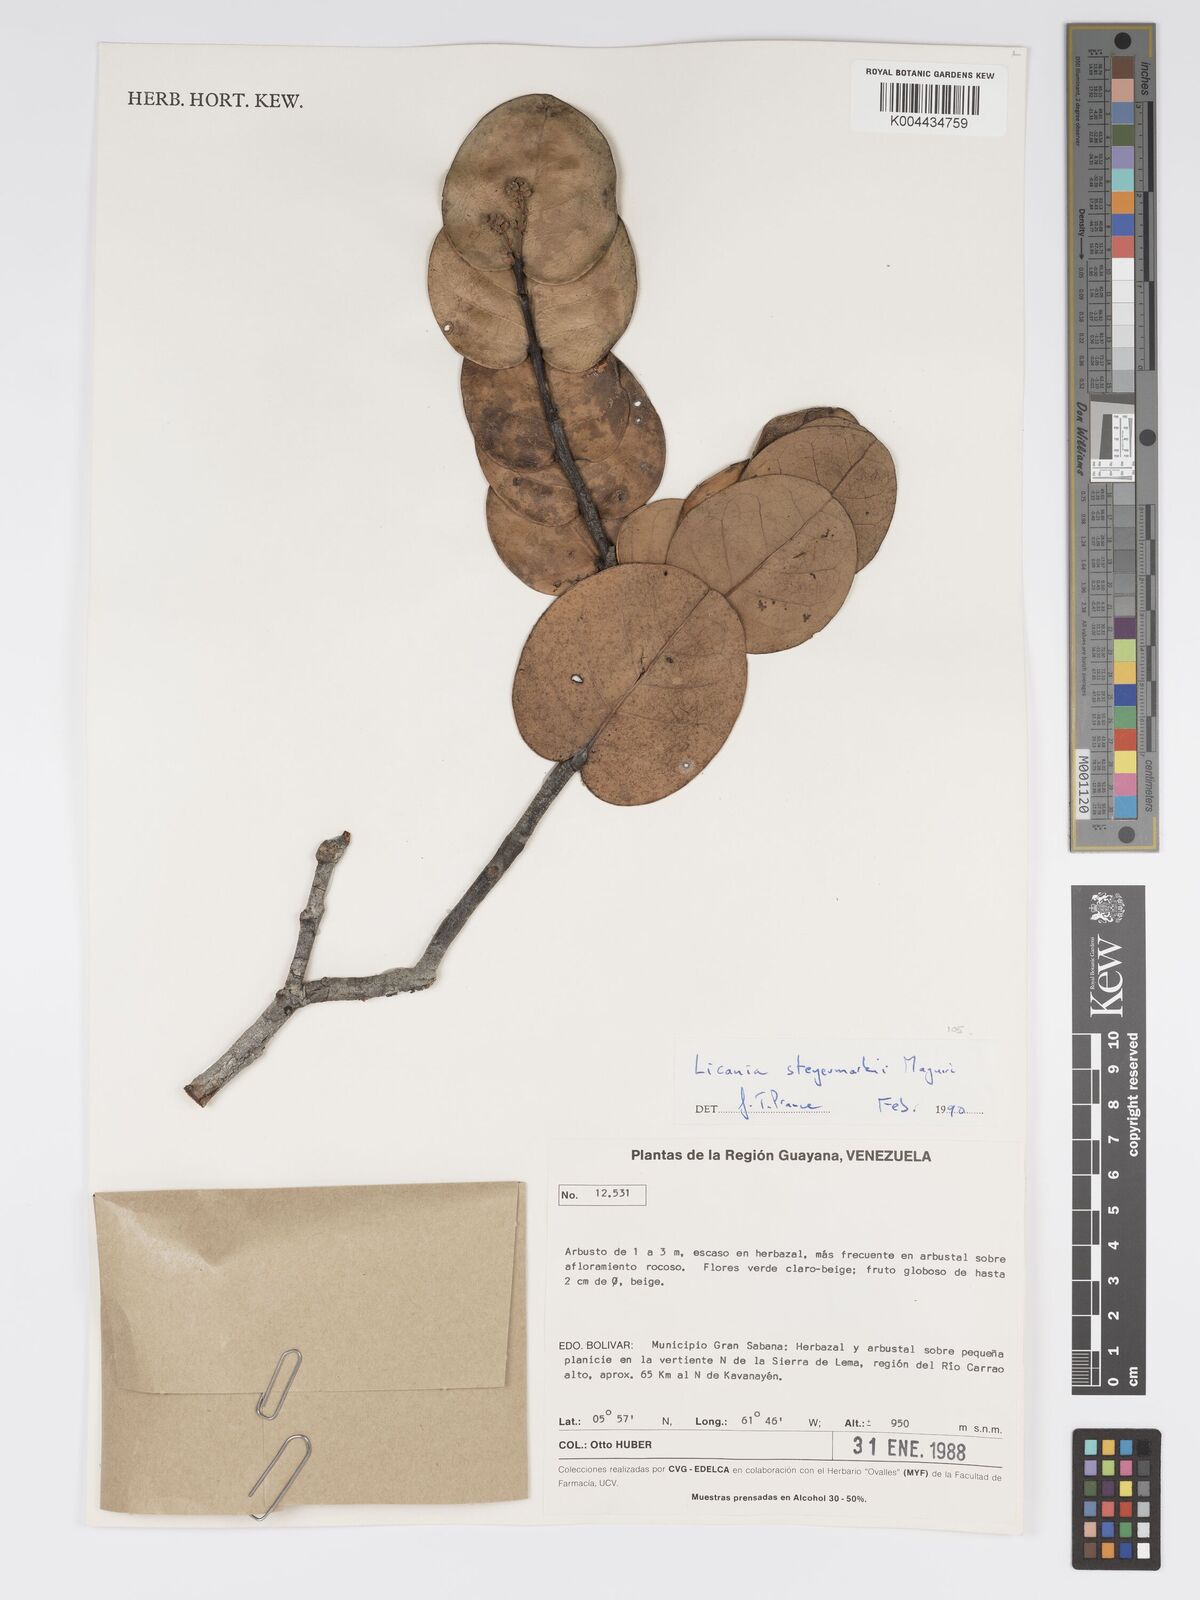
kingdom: Plantae
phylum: Tracheophyta
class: Magnoliopsida
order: Malpighiales
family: Chrysobalanaceae
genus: Licania
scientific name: Licania steyermarkii
